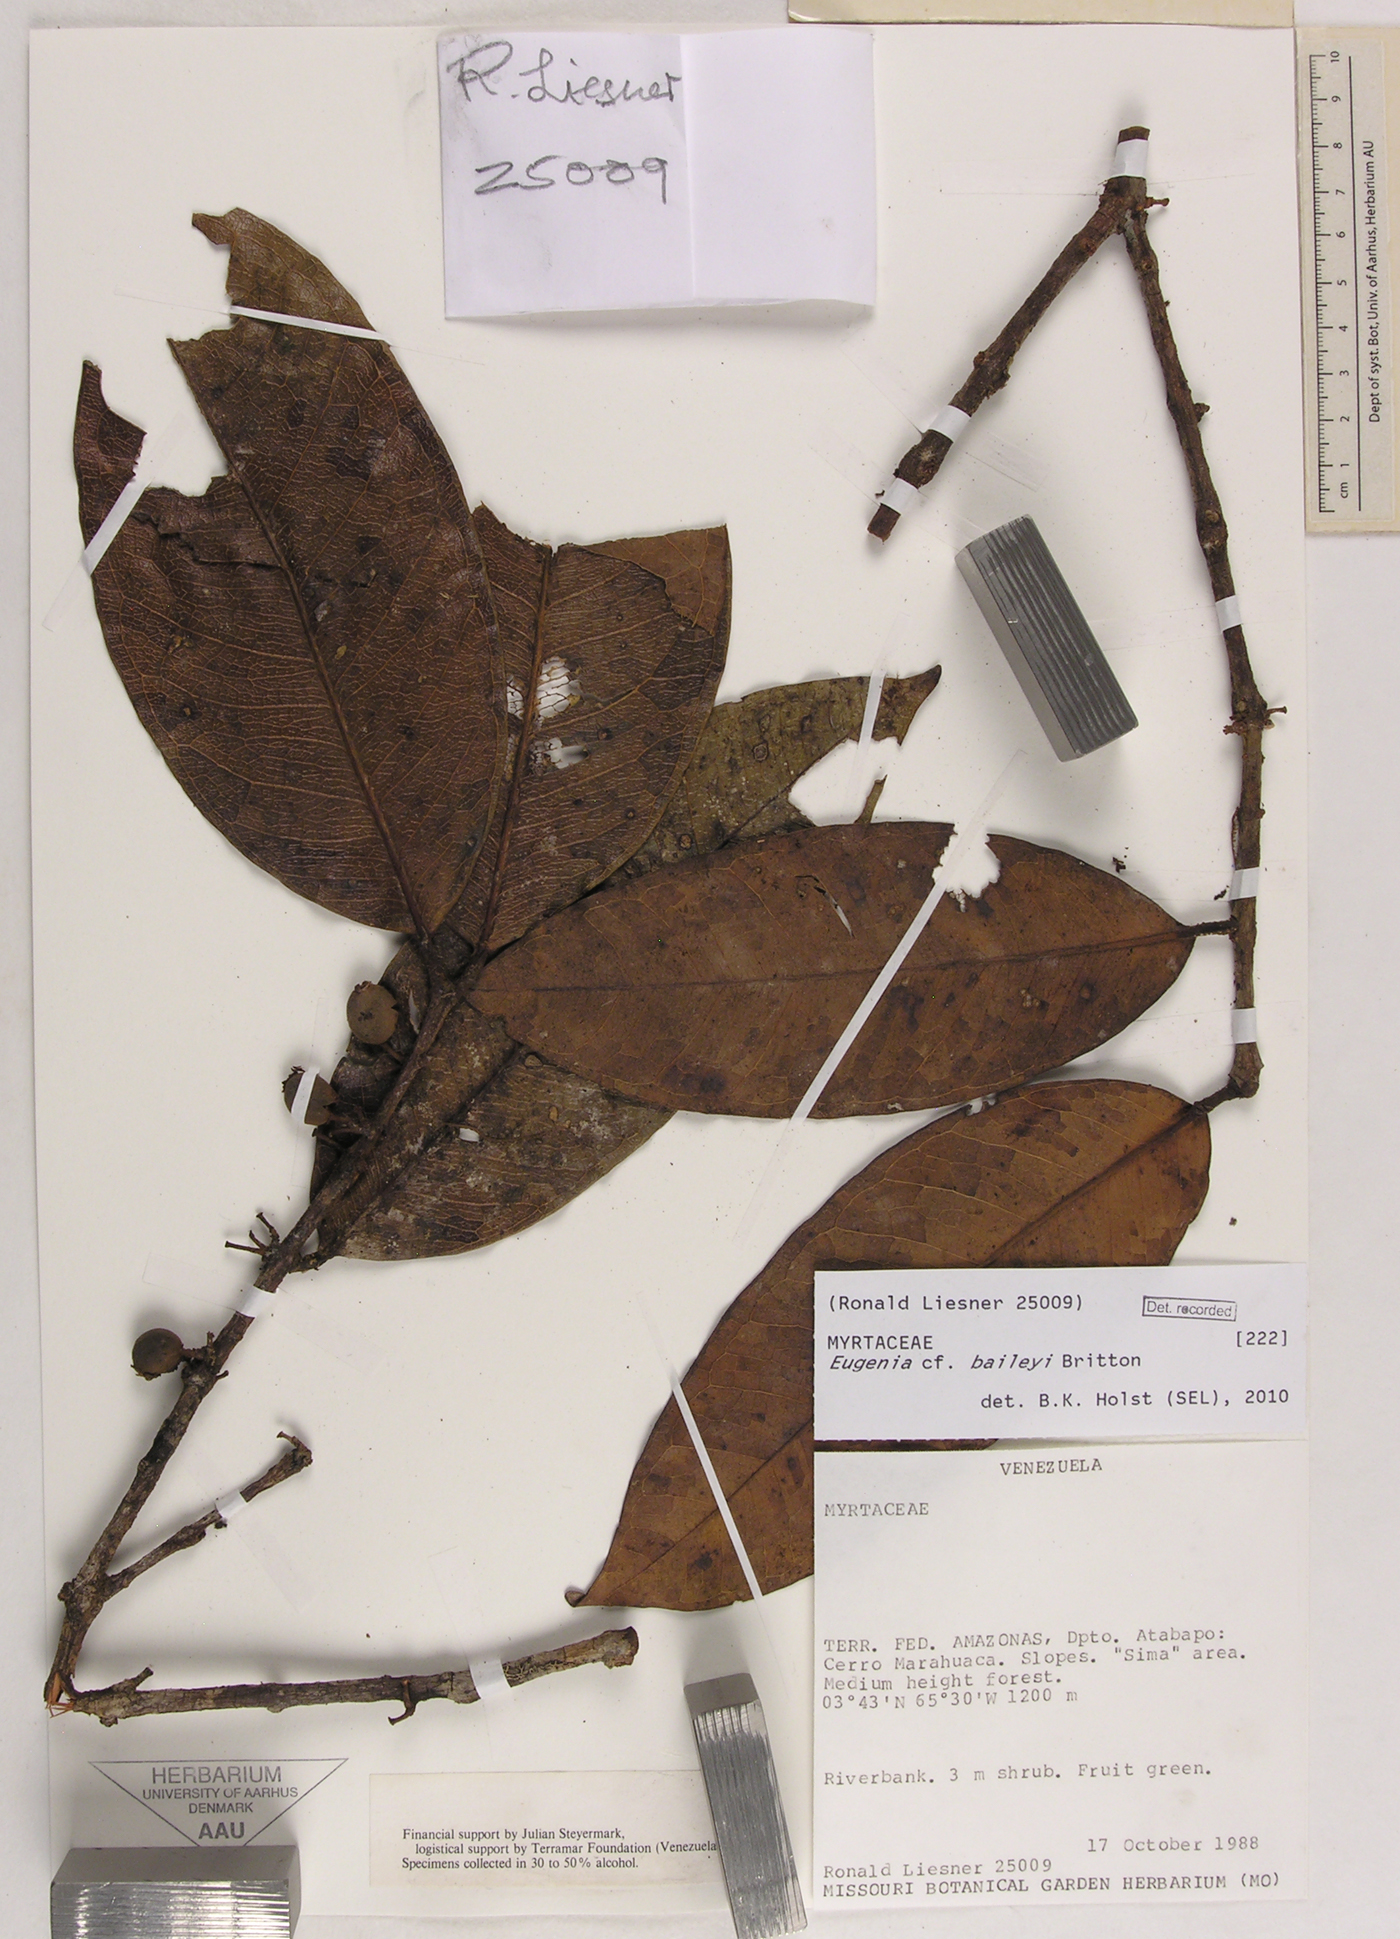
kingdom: Plantae
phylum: Tracheophyta
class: Magnoliopsida
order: Myrtales
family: Myrtaceae
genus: Eugenia
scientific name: Eugenia baileyi
